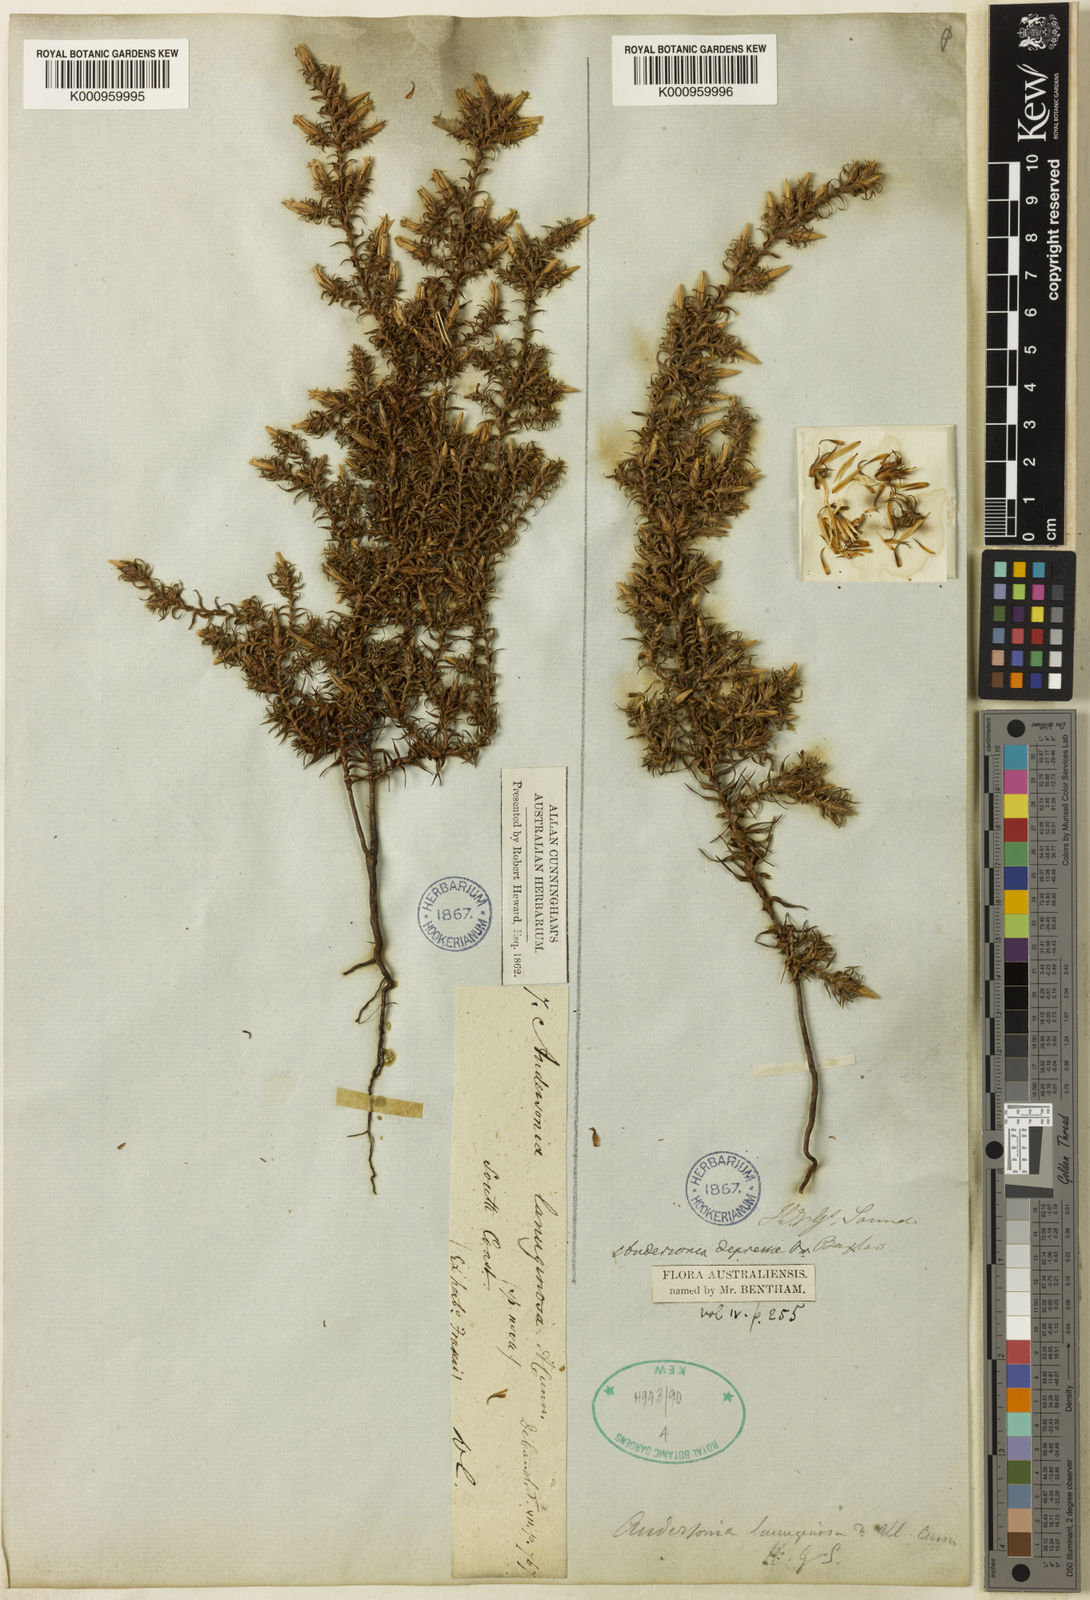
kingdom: Plantae
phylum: Tracheophyta
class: Magnoliopsida
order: Ericales
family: Ericaceae
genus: Andersonia
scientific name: Andersonia caerulea
